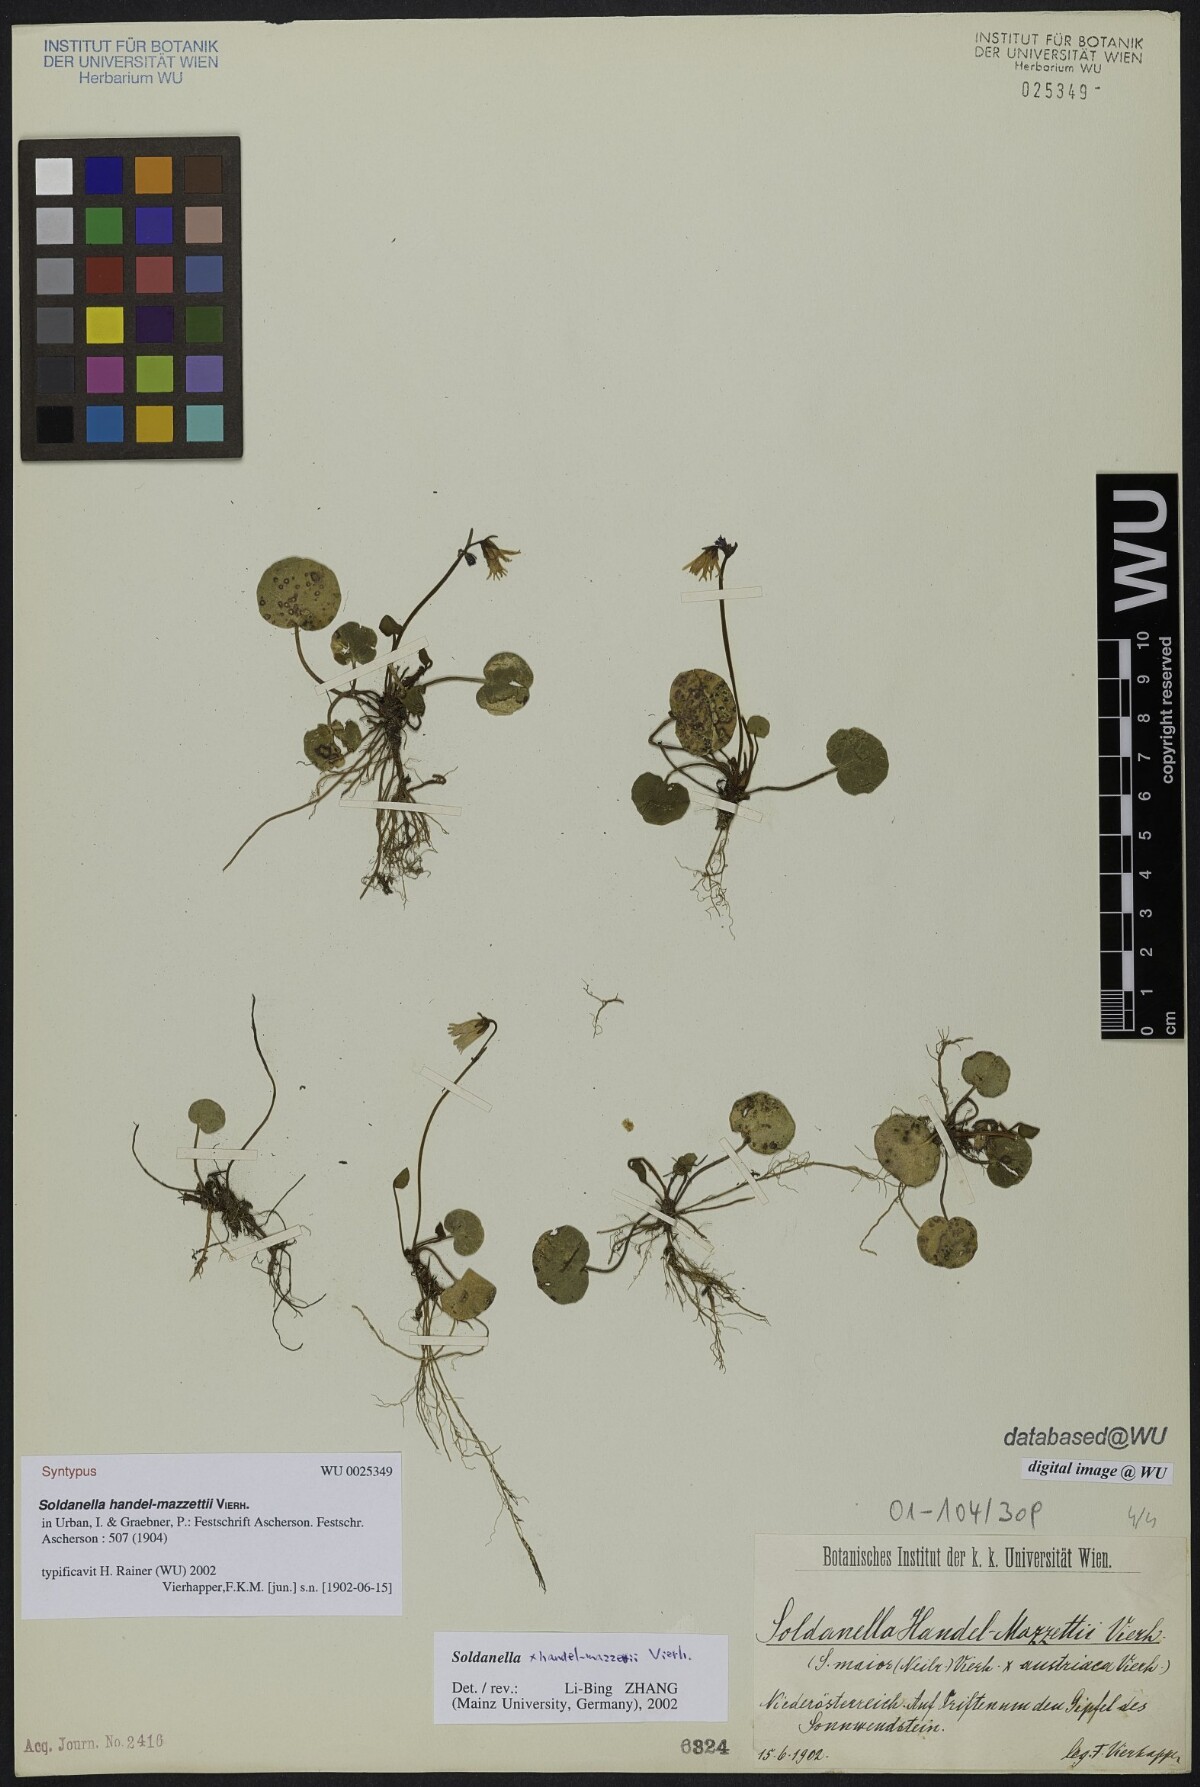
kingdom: Plantae
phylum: Tracheophyta
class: Magnoliopsida
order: Ericales
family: Primulaceae
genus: Soldanella
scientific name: Soldanella handel-mazzettii
